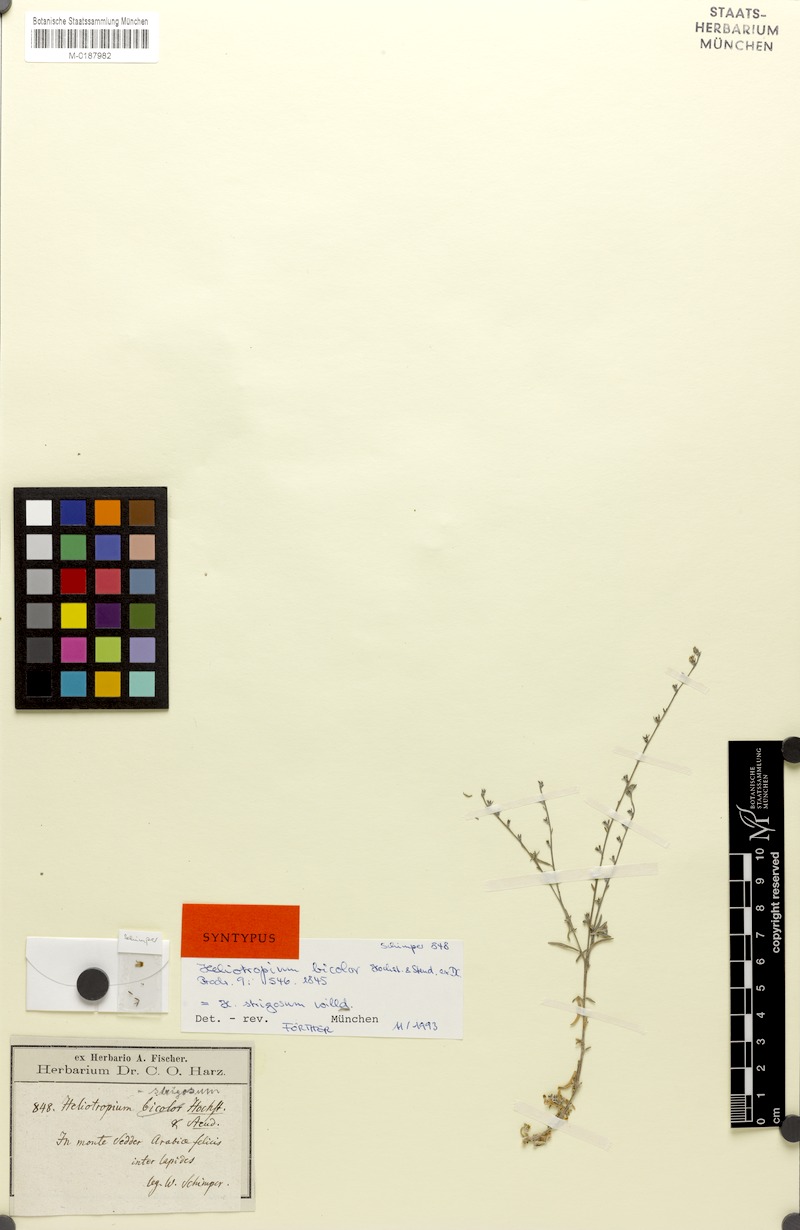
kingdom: Plantae
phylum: Tracheophyta
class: Magnoliopsida
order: Boraginales
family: Heliotropiaceae
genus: Euploca
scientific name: Euploca strigosa
